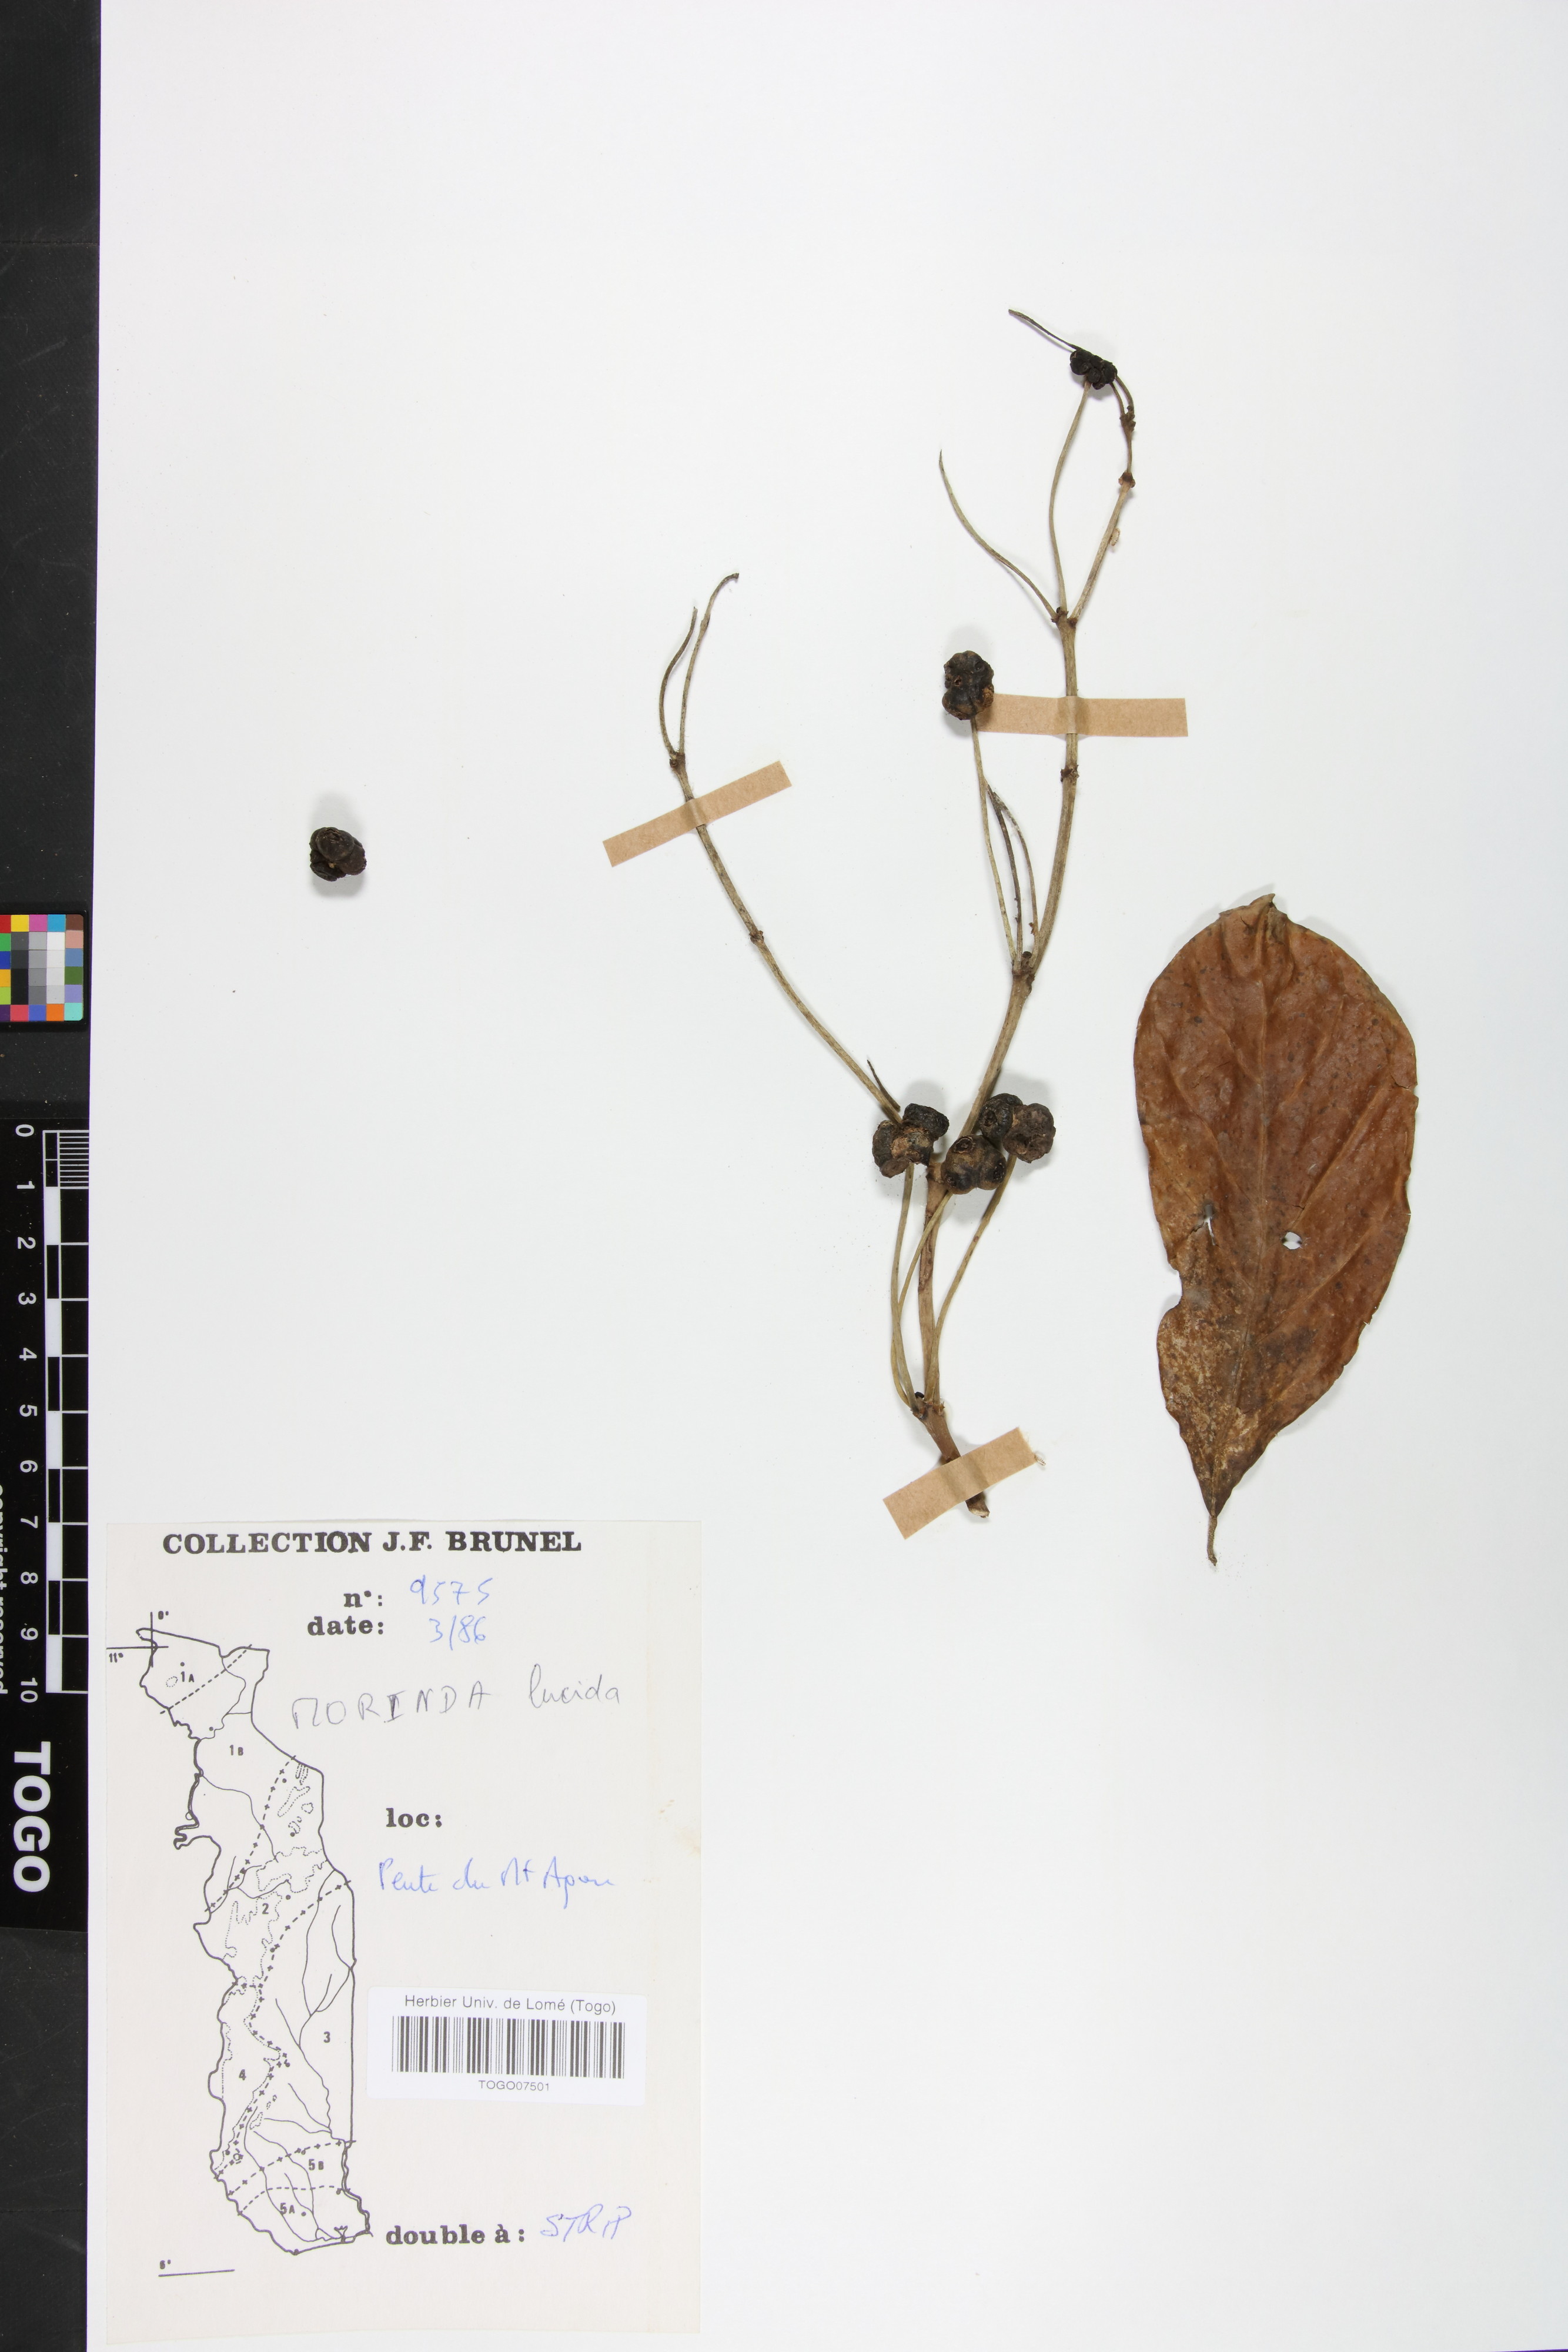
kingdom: Plantae
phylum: Tracheophyta
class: Magnoliopsida
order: Gentianales
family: Rubiaceae
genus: Morinda
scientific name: Morinda lucida
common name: Brimstonetree
